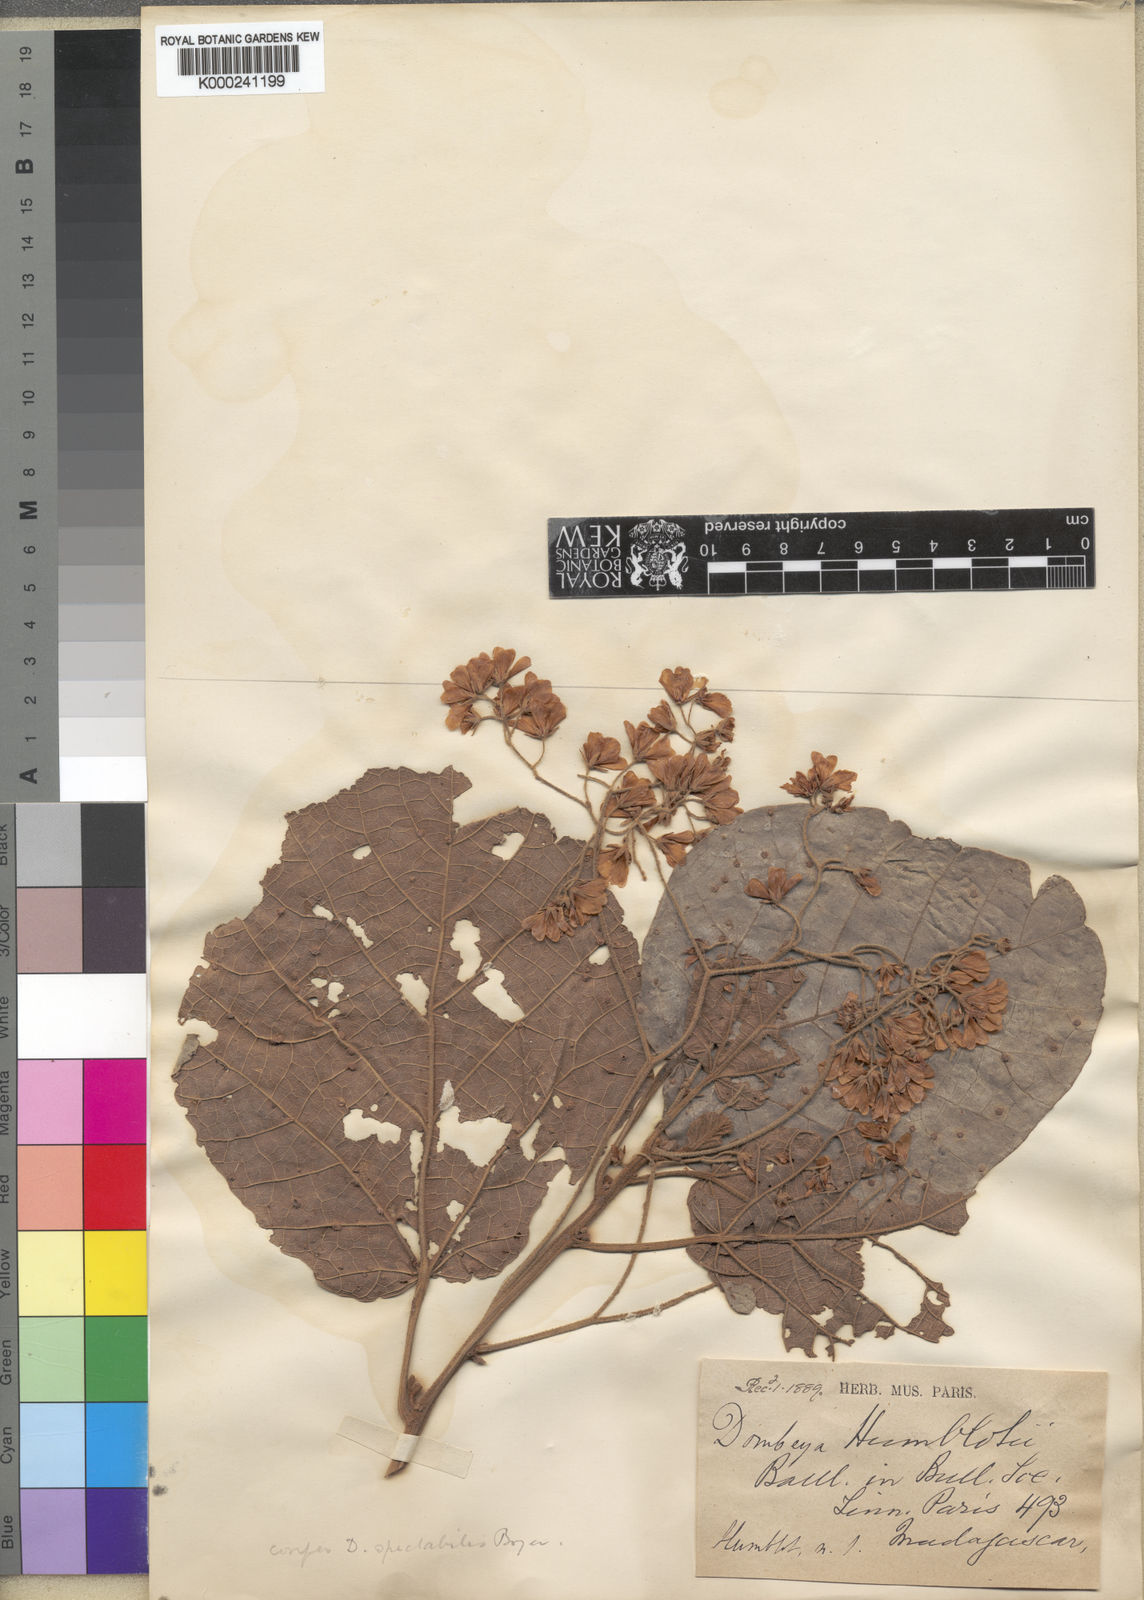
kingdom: Plantae
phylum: Tracheophyta
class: Magnoliopsida
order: Malvales
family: Malvaceae
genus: Dombeya
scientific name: Dombeya
